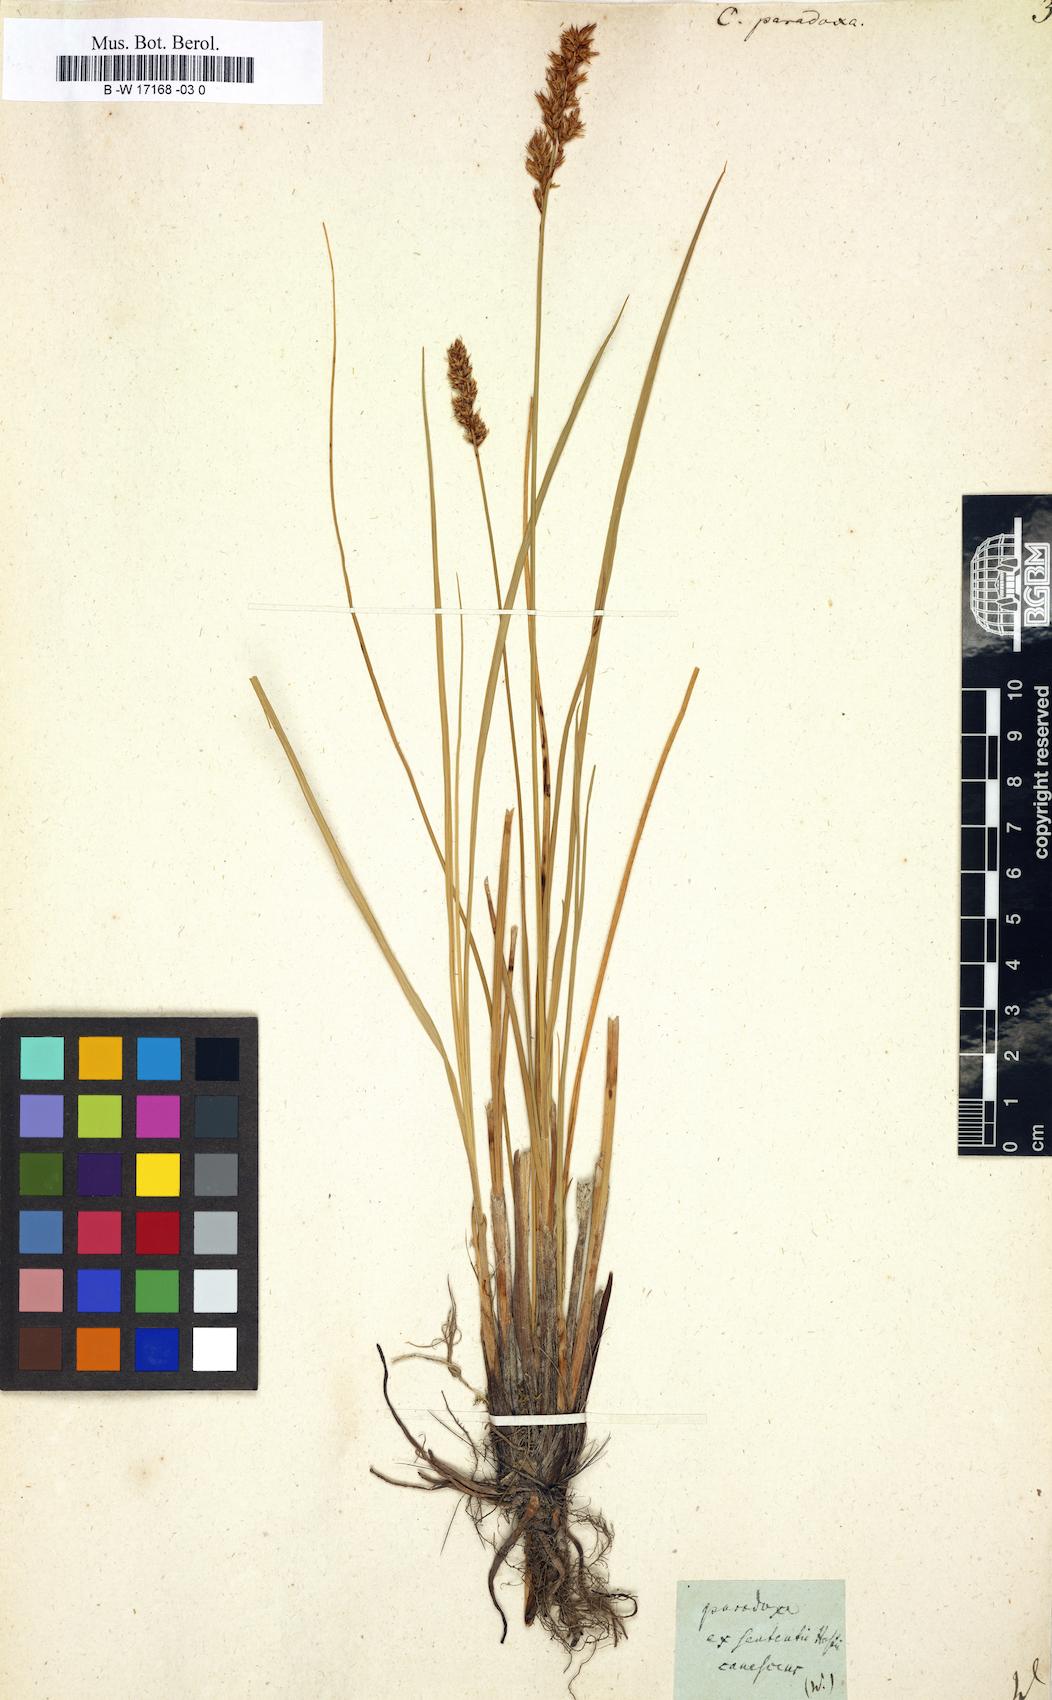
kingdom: Plantae
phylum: Tracheophyta
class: Liliopsida
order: Poales
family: Cyperaceae
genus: Carex
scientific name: Carex
